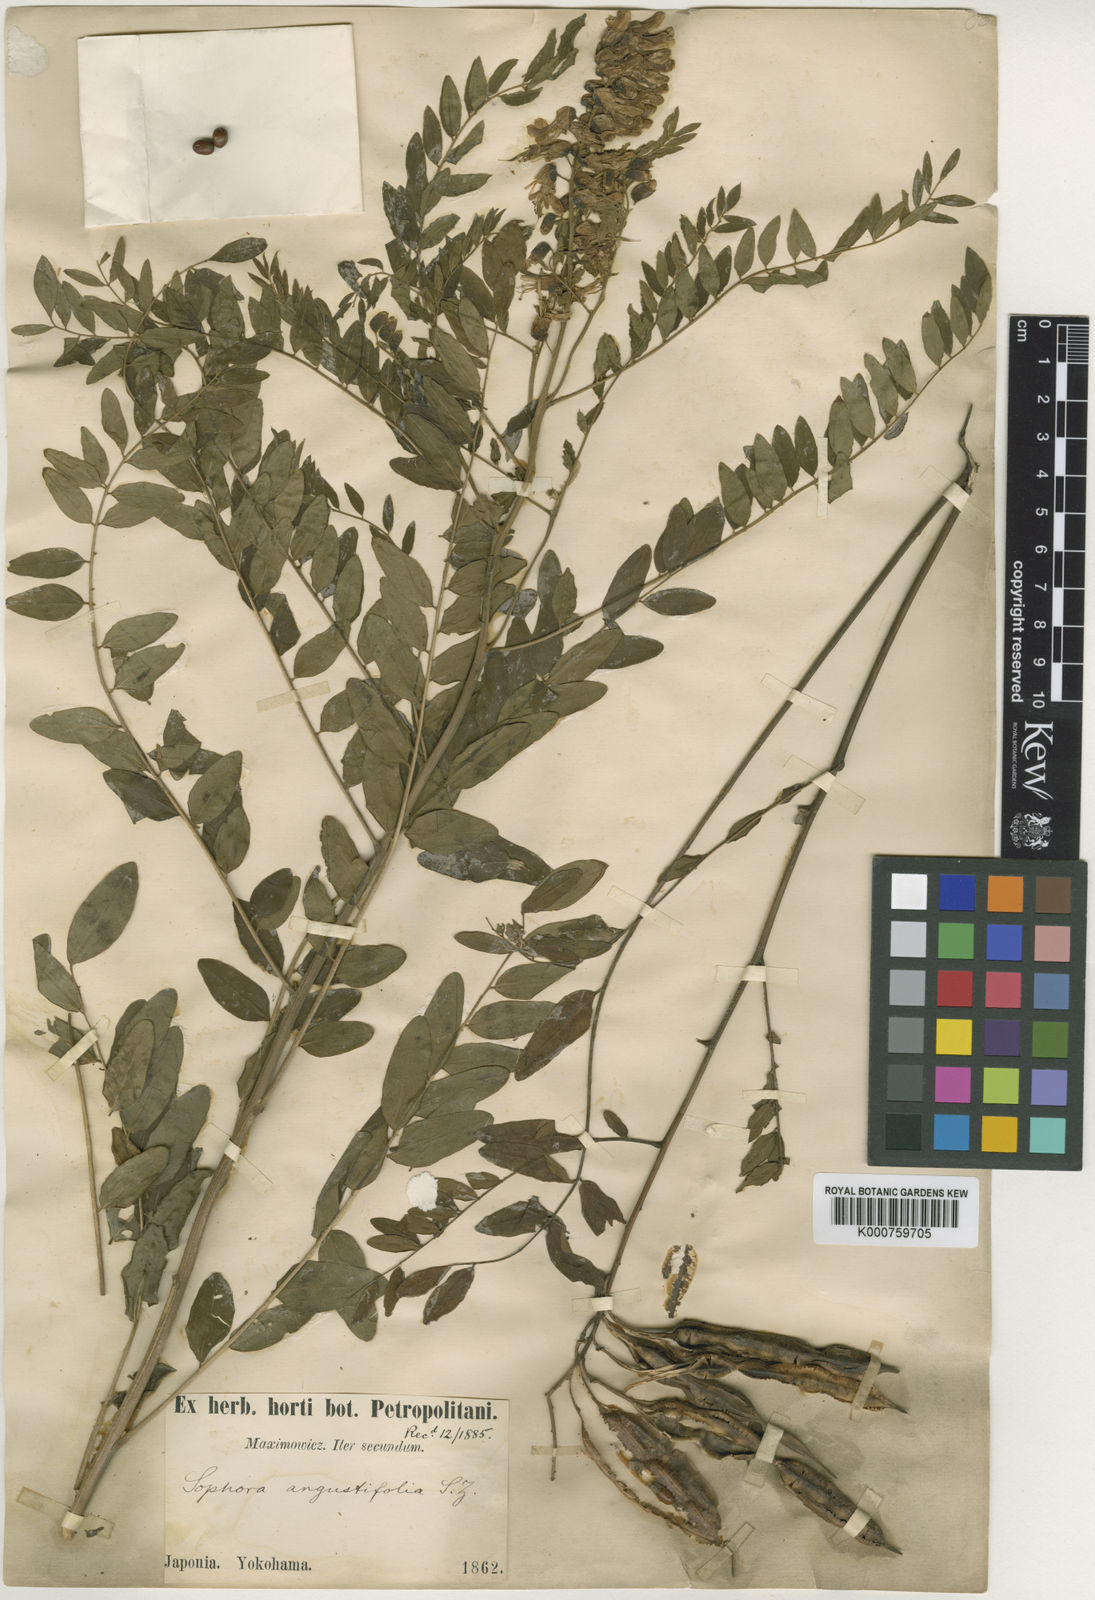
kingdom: Plantae
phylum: Tracheophyta
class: Magnoliopsida
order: Fabales
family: Fabaceae
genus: Sophora
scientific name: Sophora flavescens
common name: Shrubby sophora
